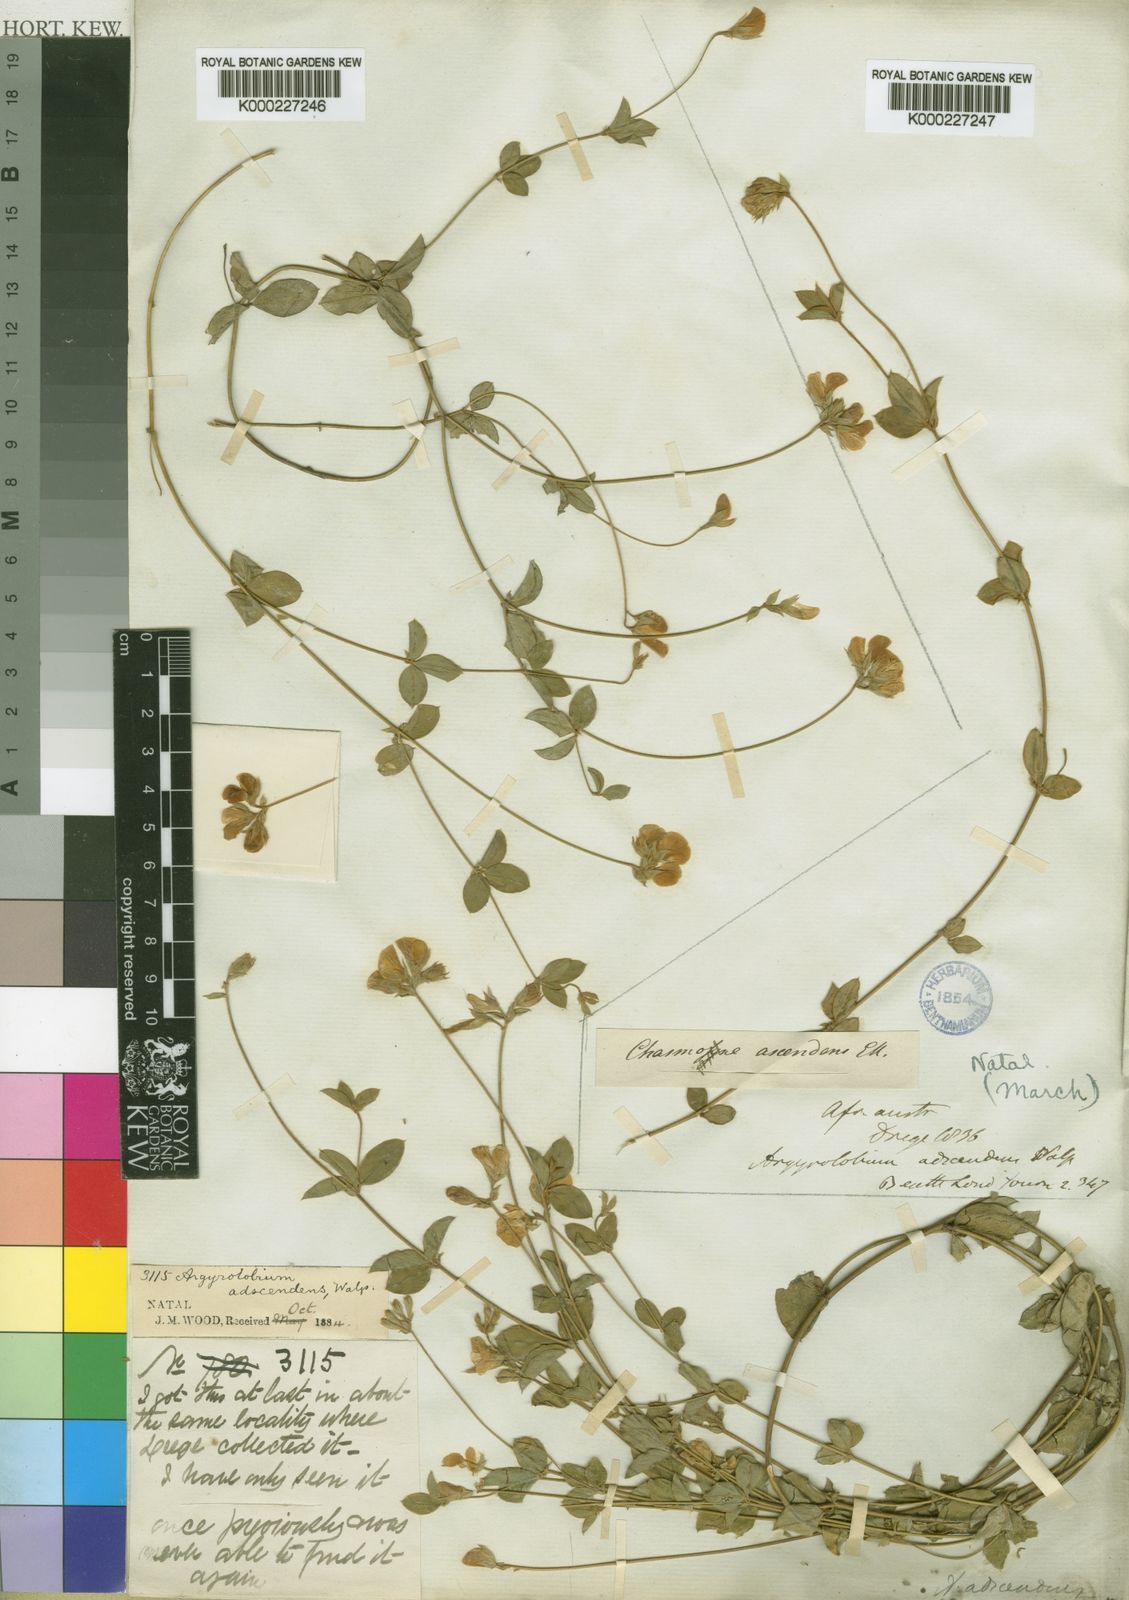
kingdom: Plantae
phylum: Tracheophyta
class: Magnoliopsida
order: Fabales
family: Fabaceae
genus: Argyrolobium
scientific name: Argyrolobium ascendens
